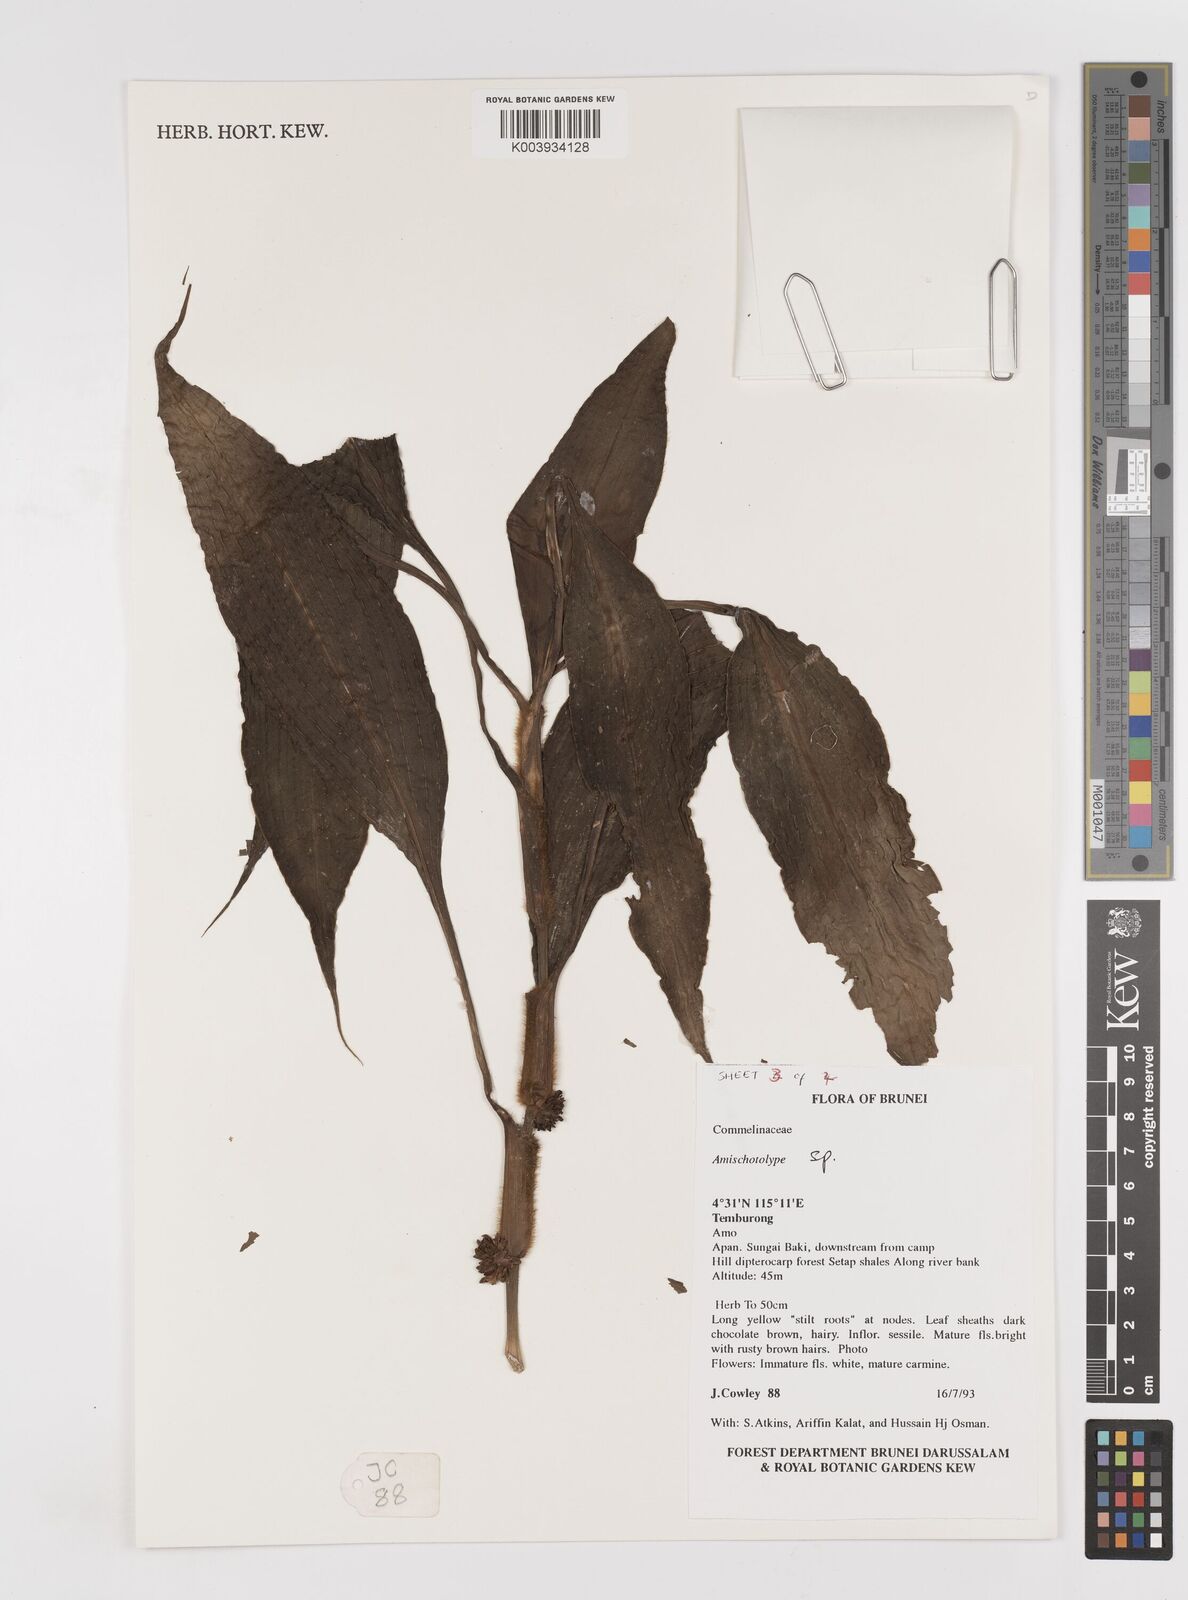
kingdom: Plantae
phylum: Tracheophyta
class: Liliopsida
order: Commelinales
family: Commelinaceae
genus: Amischotolype
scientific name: Amischotolype
